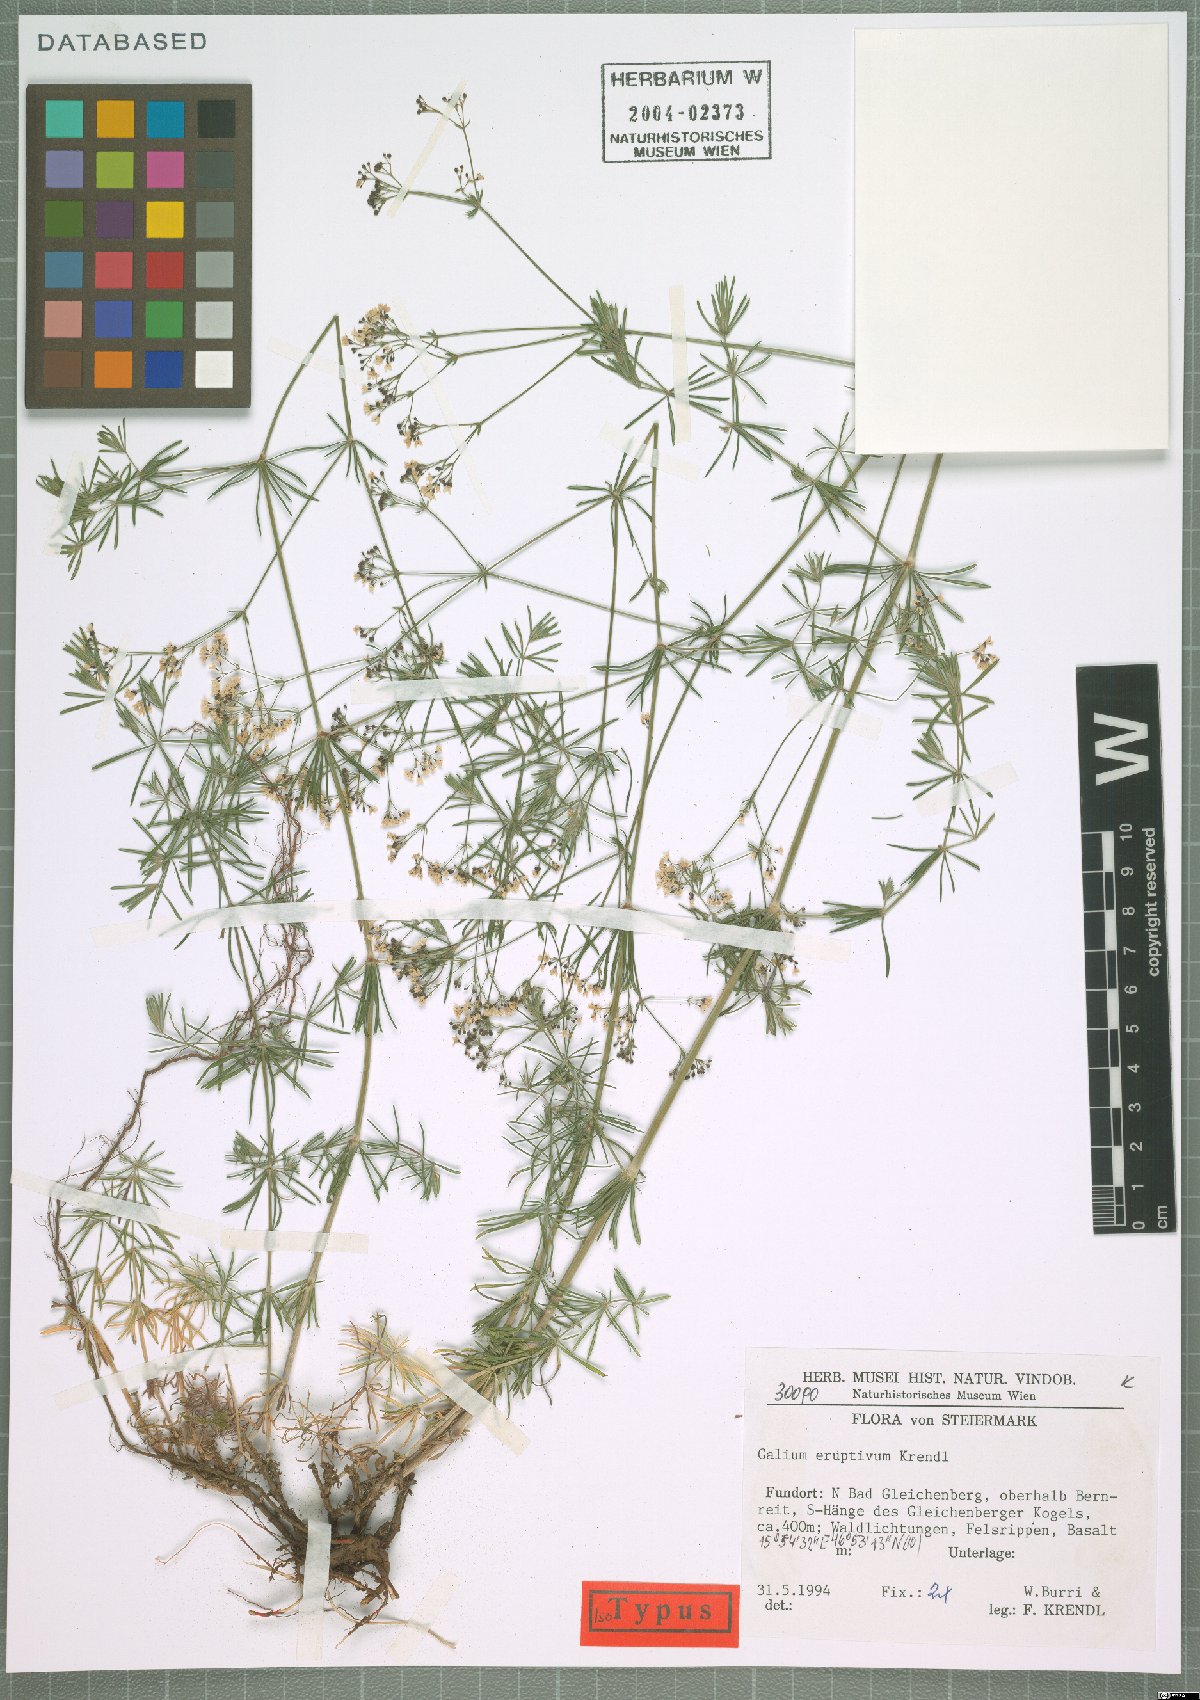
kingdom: Plantae
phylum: Tracheophyta
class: Magnoliopsida
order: Gentianales
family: Rubiaceae
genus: Galium
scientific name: Galium eruptivum
